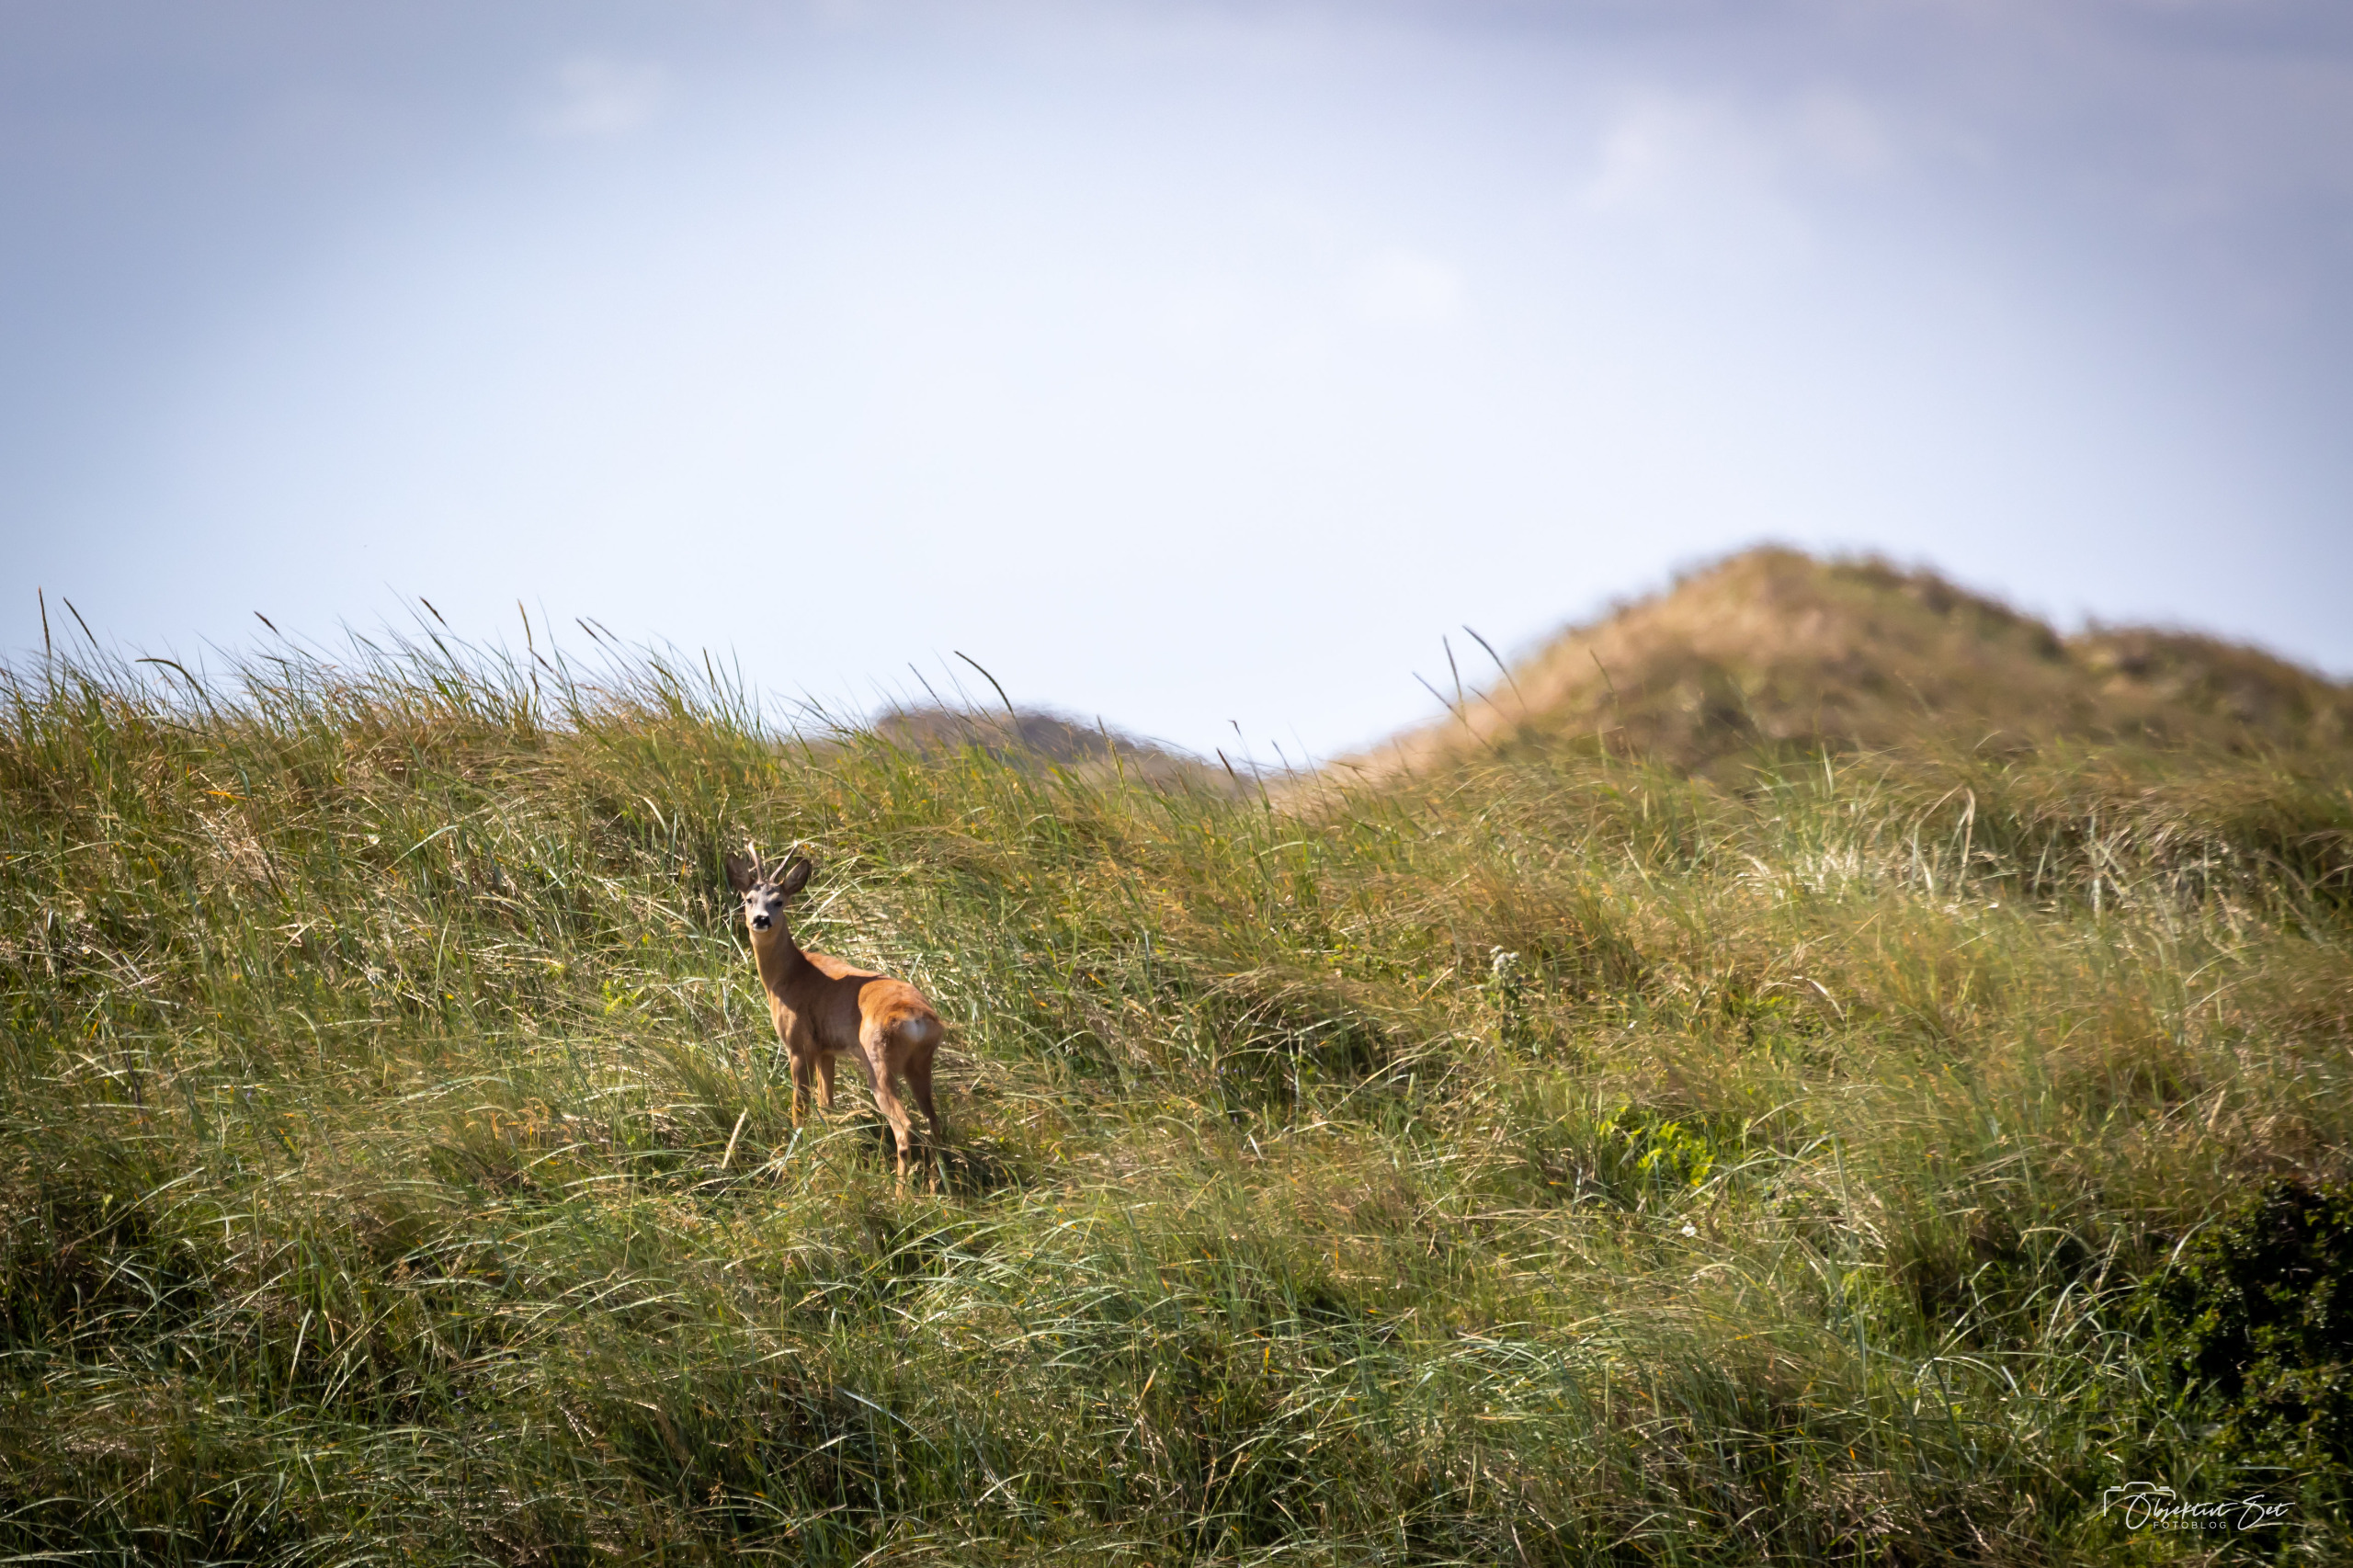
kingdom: Animalia
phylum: Chordata
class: Mammalia
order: Artiodactyla
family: Cervidae
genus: Capreolus
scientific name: Capreolus capreolus
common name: Rådyr
